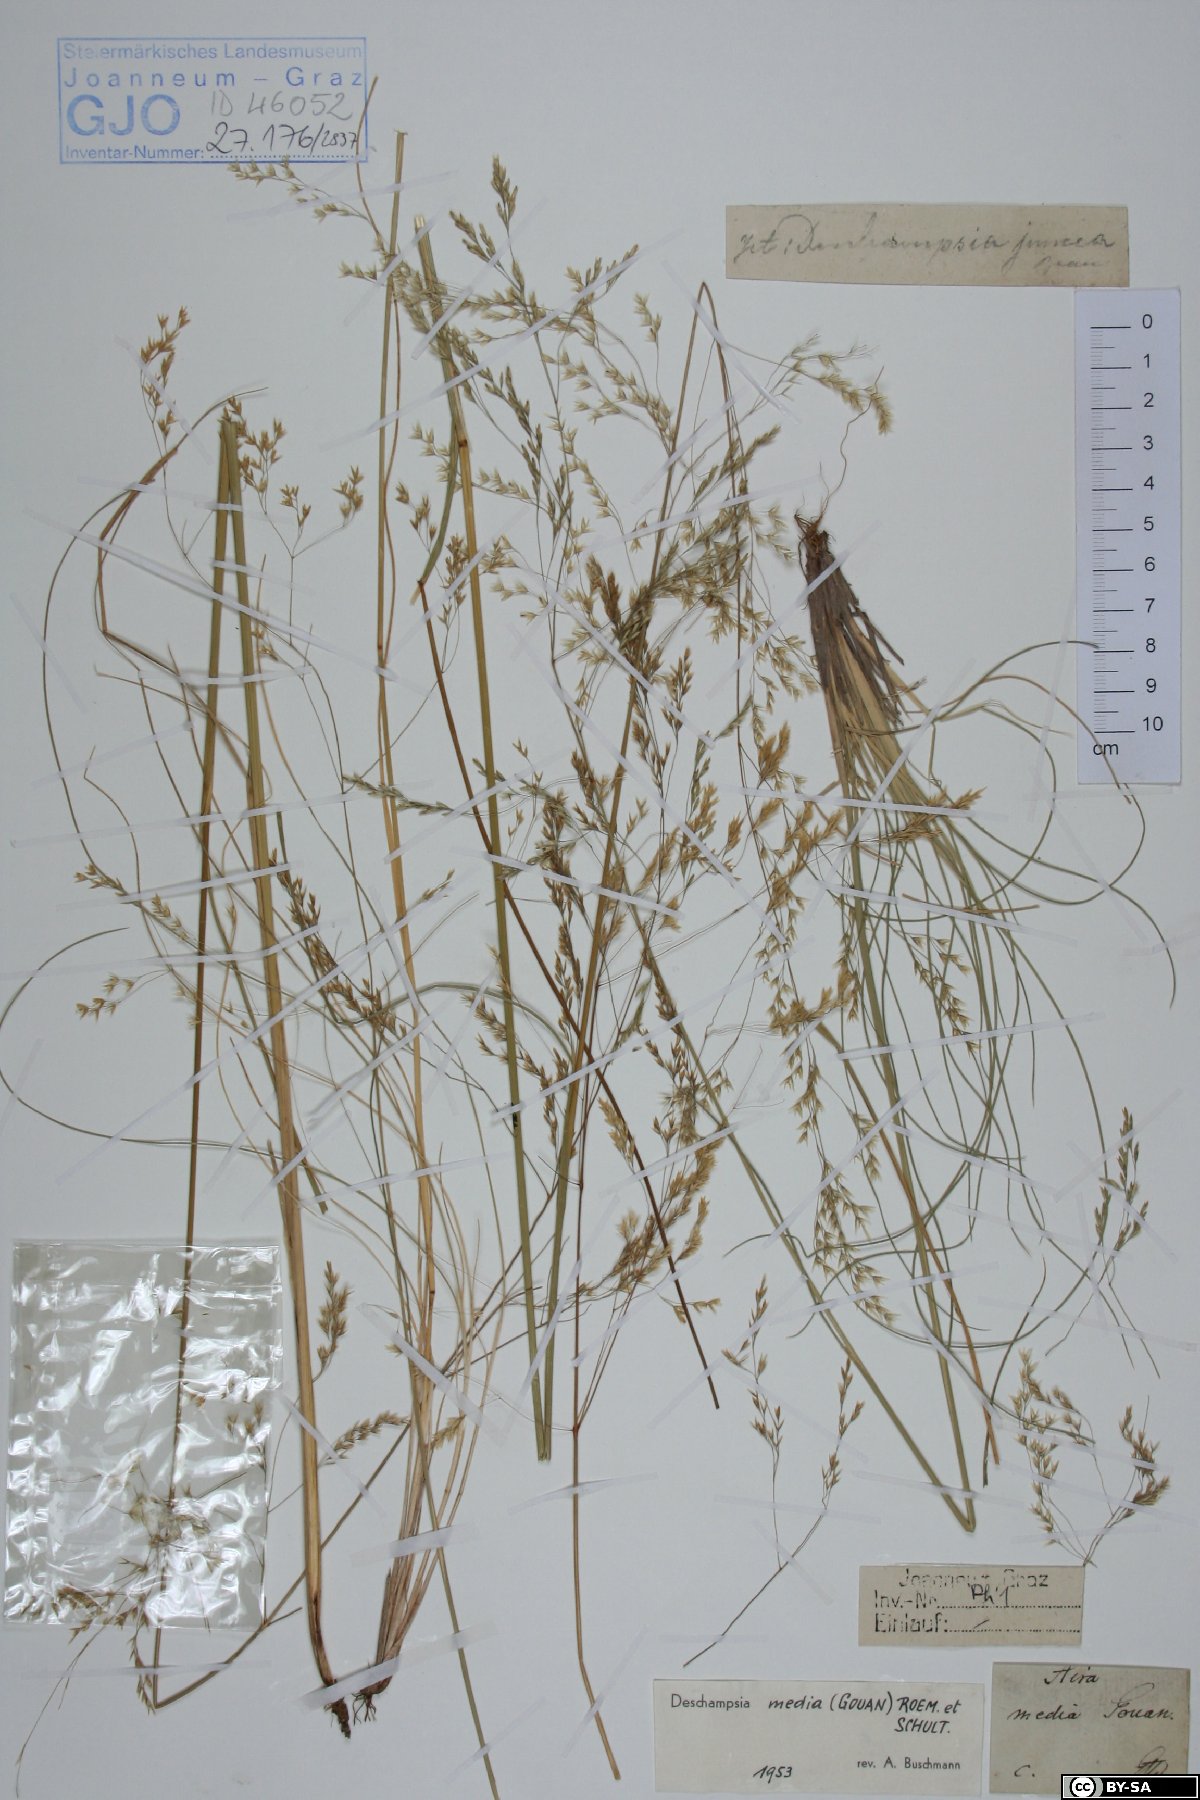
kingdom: Plantae
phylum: Tracheophyta
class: Liliopsida
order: Poales
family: Poaceae
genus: Deschampsia
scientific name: Deschampsia media
